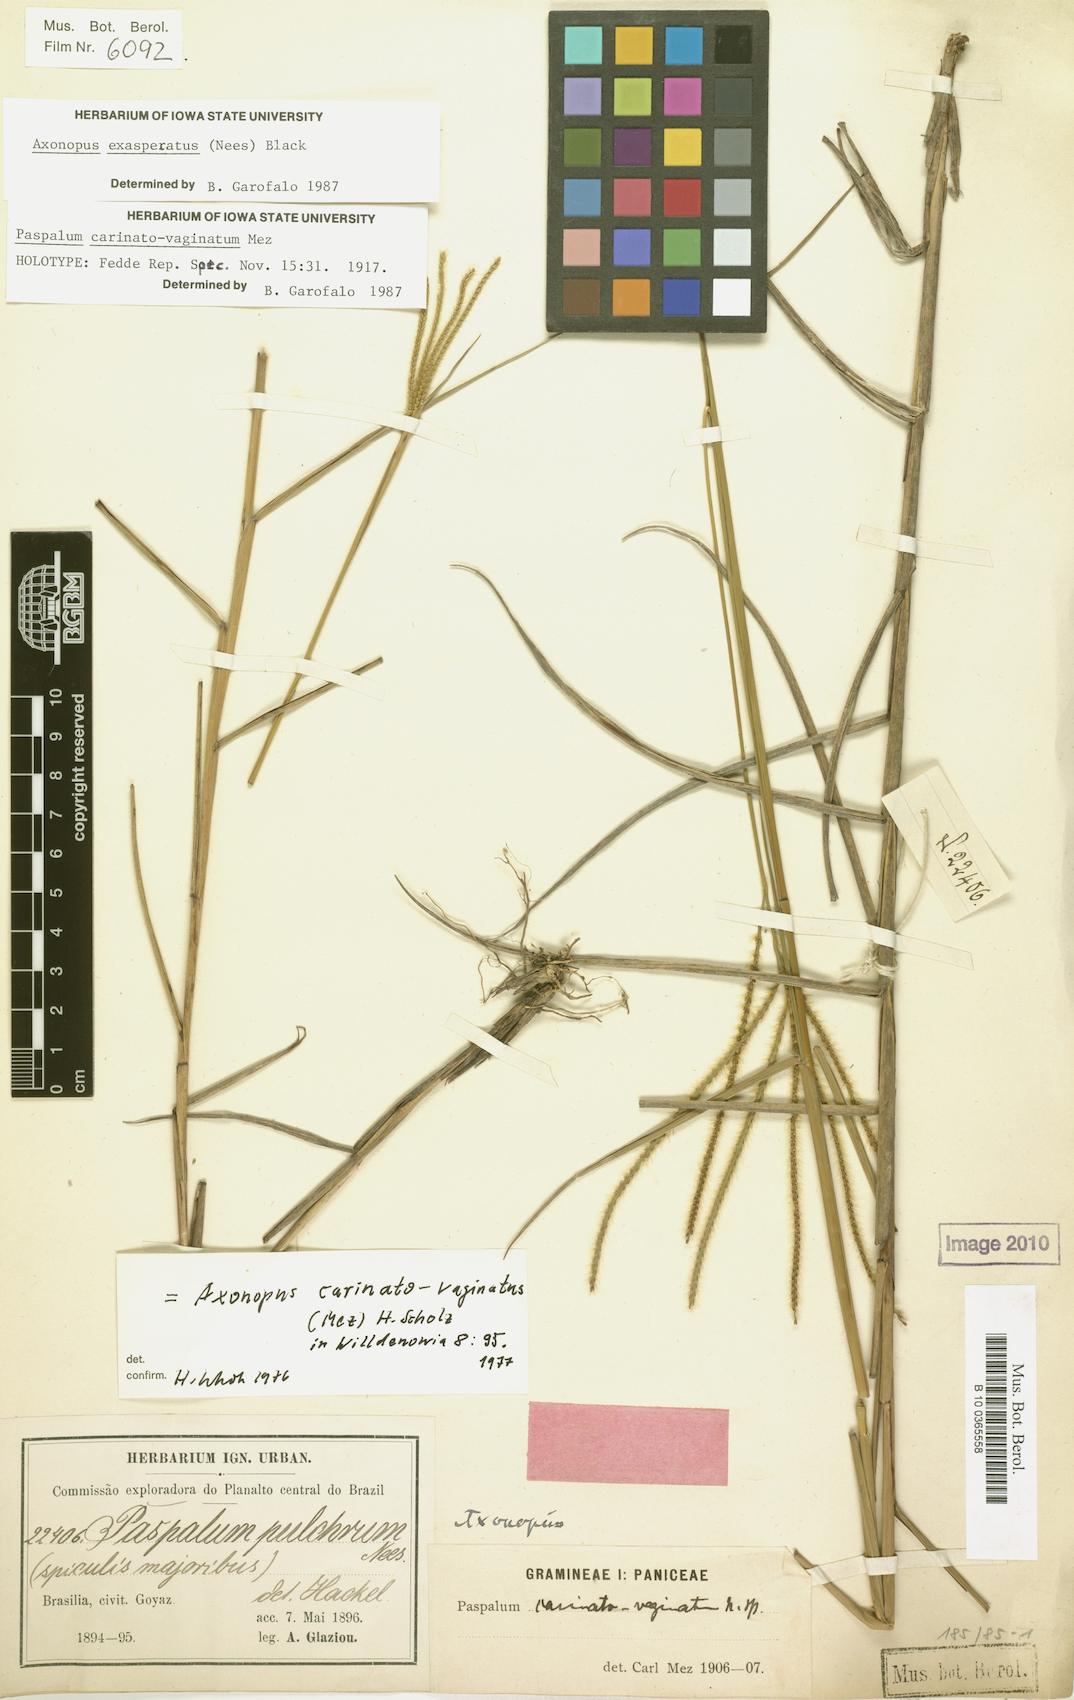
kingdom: Plantae
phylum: Tracheophyta
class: Liliopsida
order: Poales
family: Poaceae
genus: Axonopus
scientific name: Axonopus aureus
